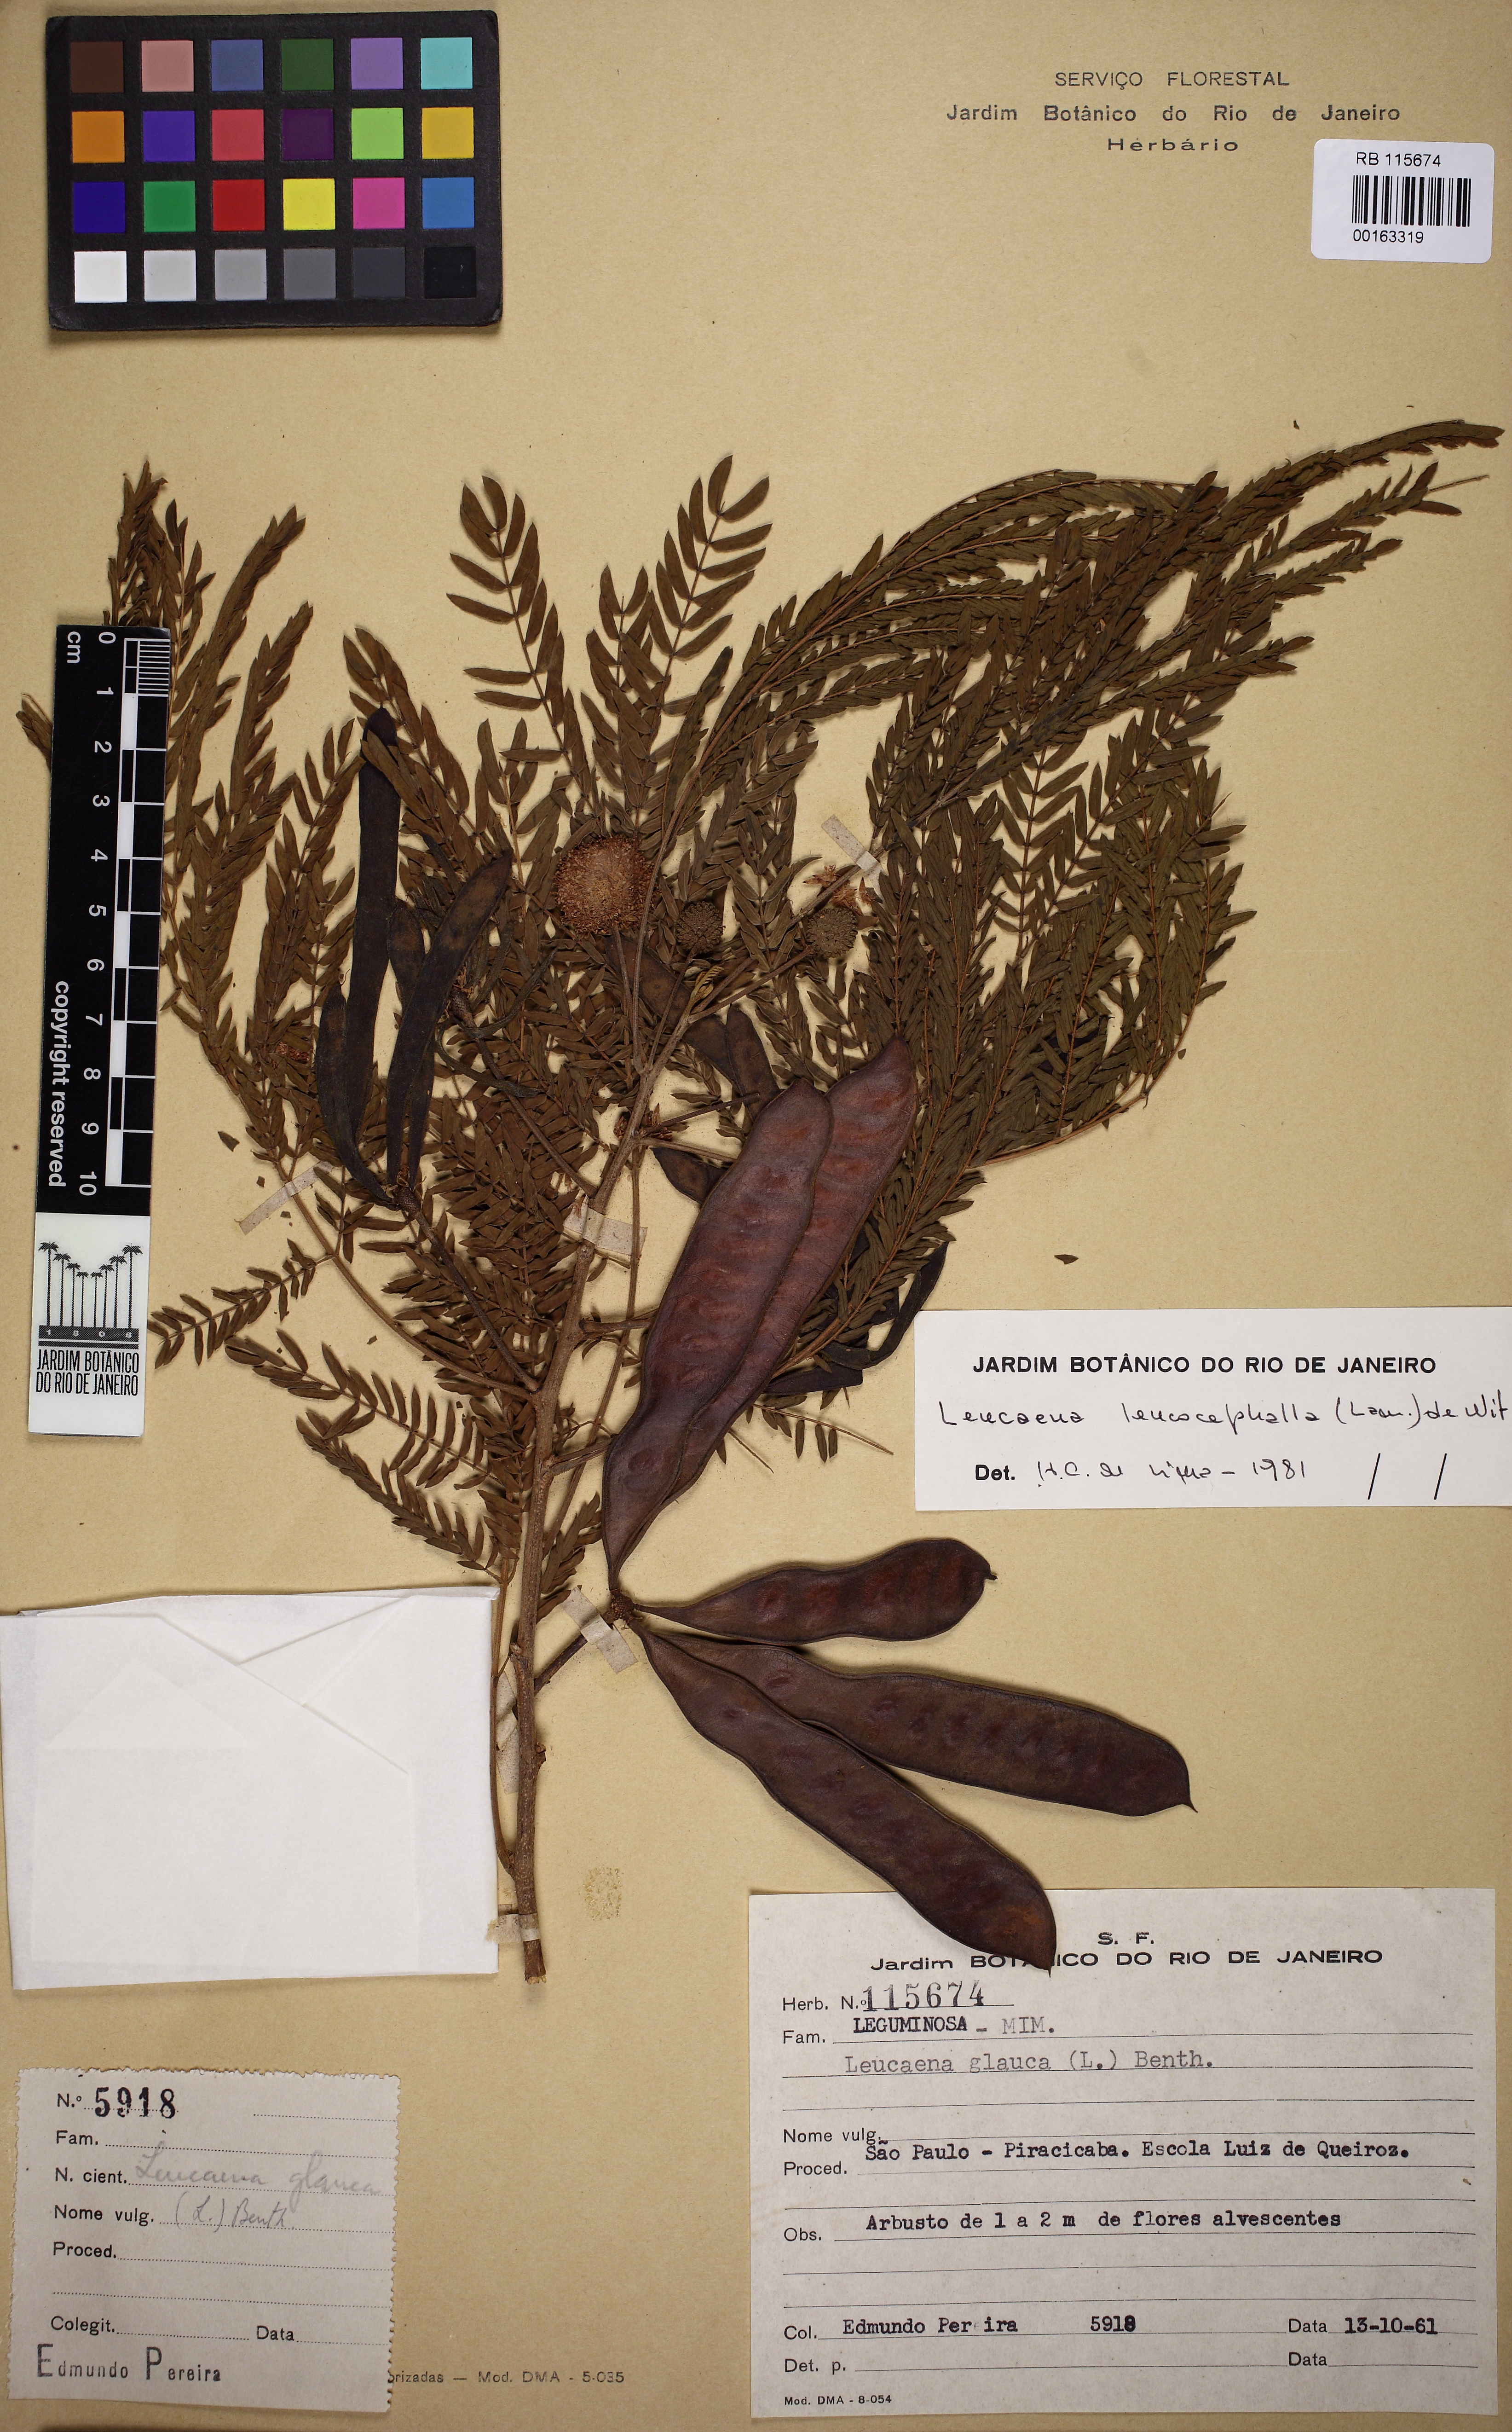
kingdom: Plantae
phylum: Tracheophyta
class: Magnoliopsida
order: Fabales
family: Fabaceae
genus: Leucaena
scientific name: Leucaena leucocephala
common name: White leadtree
